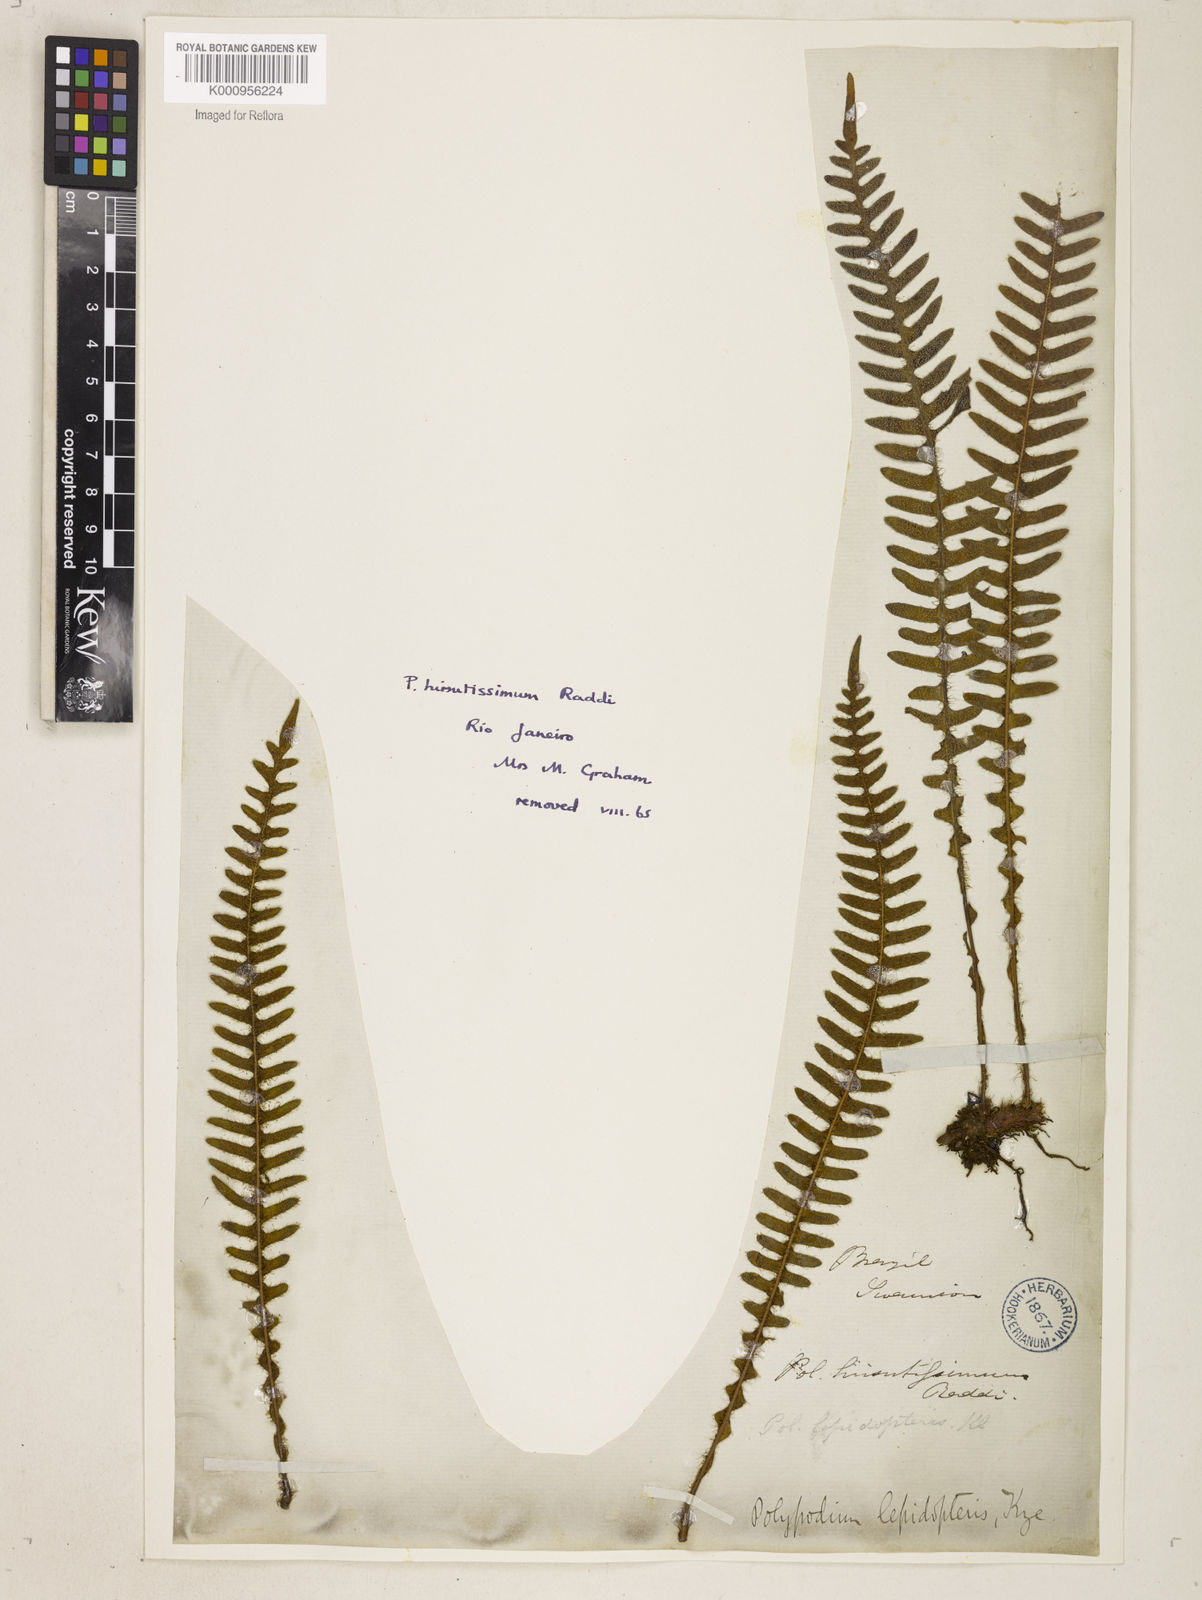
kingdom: Plantae
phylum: Tracheophyta
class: Polypodiopsida
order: Polypodiales
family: Polypodiaceae
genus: Pleopeltis
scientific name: Pleopeltis hirsutissima
